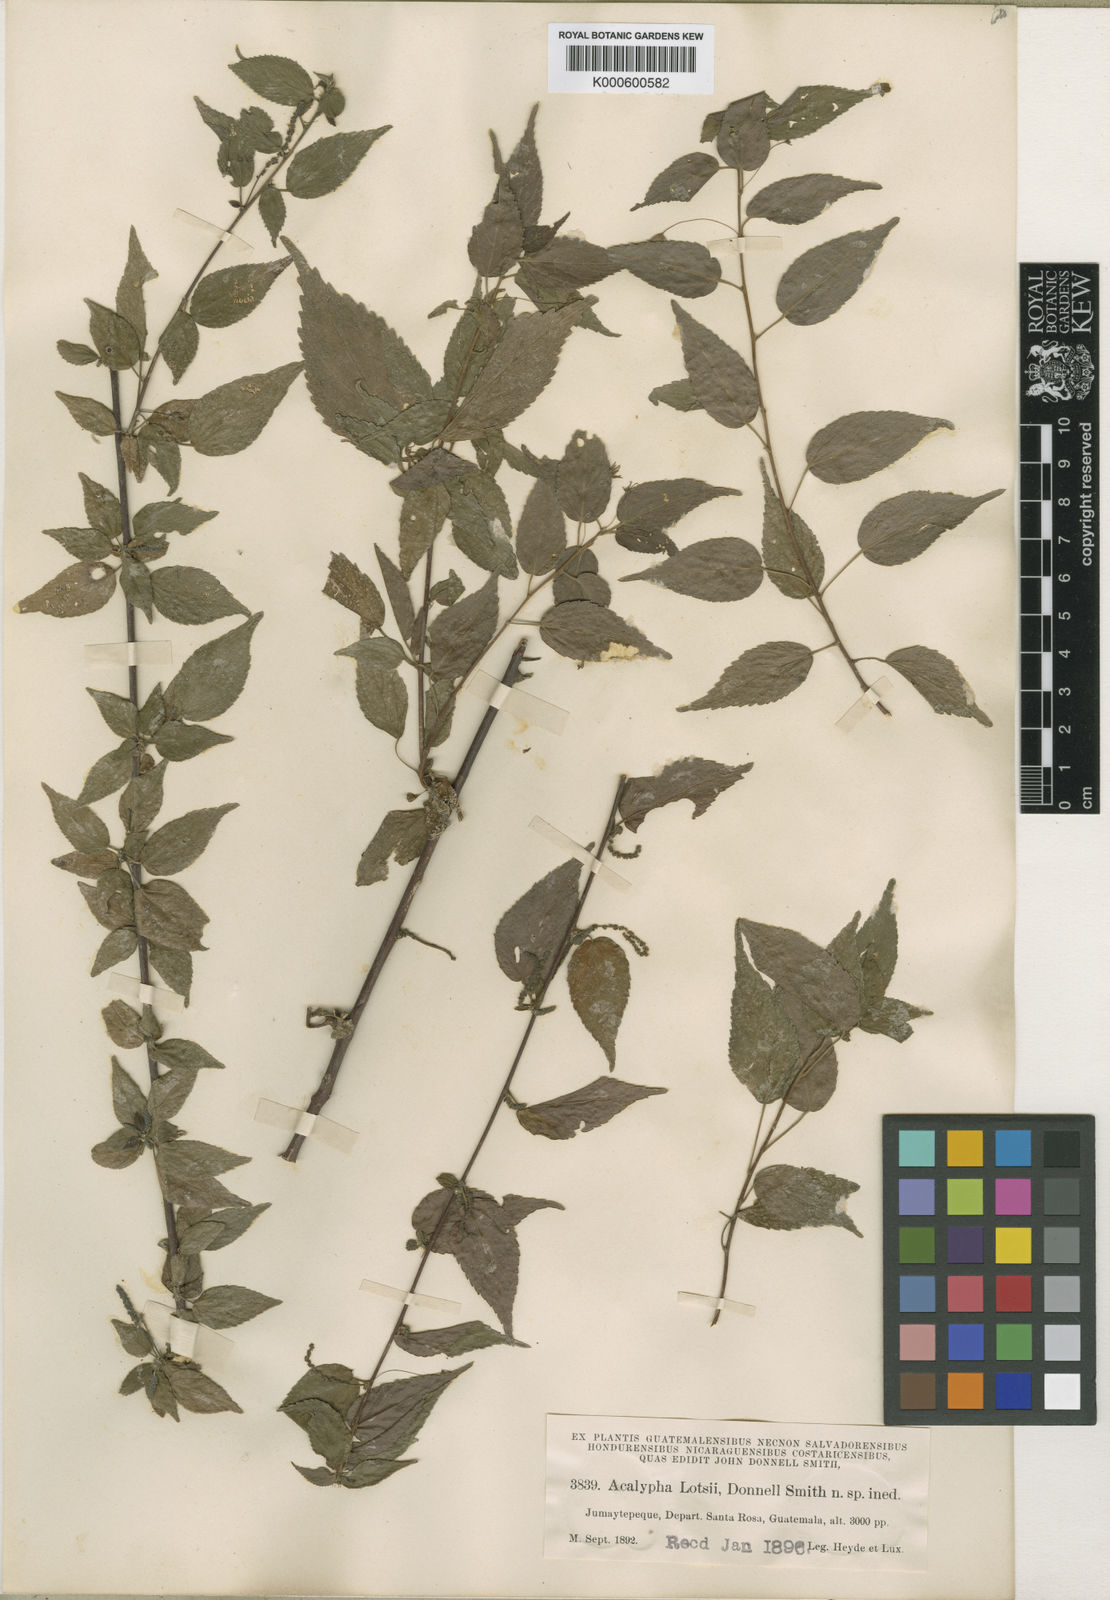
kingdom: Plantae
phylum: Tracheophyta
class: Magnoliopsida
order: Malpighiales
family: Euphorbiaceae
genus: Acalypha
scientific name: Acalypha
